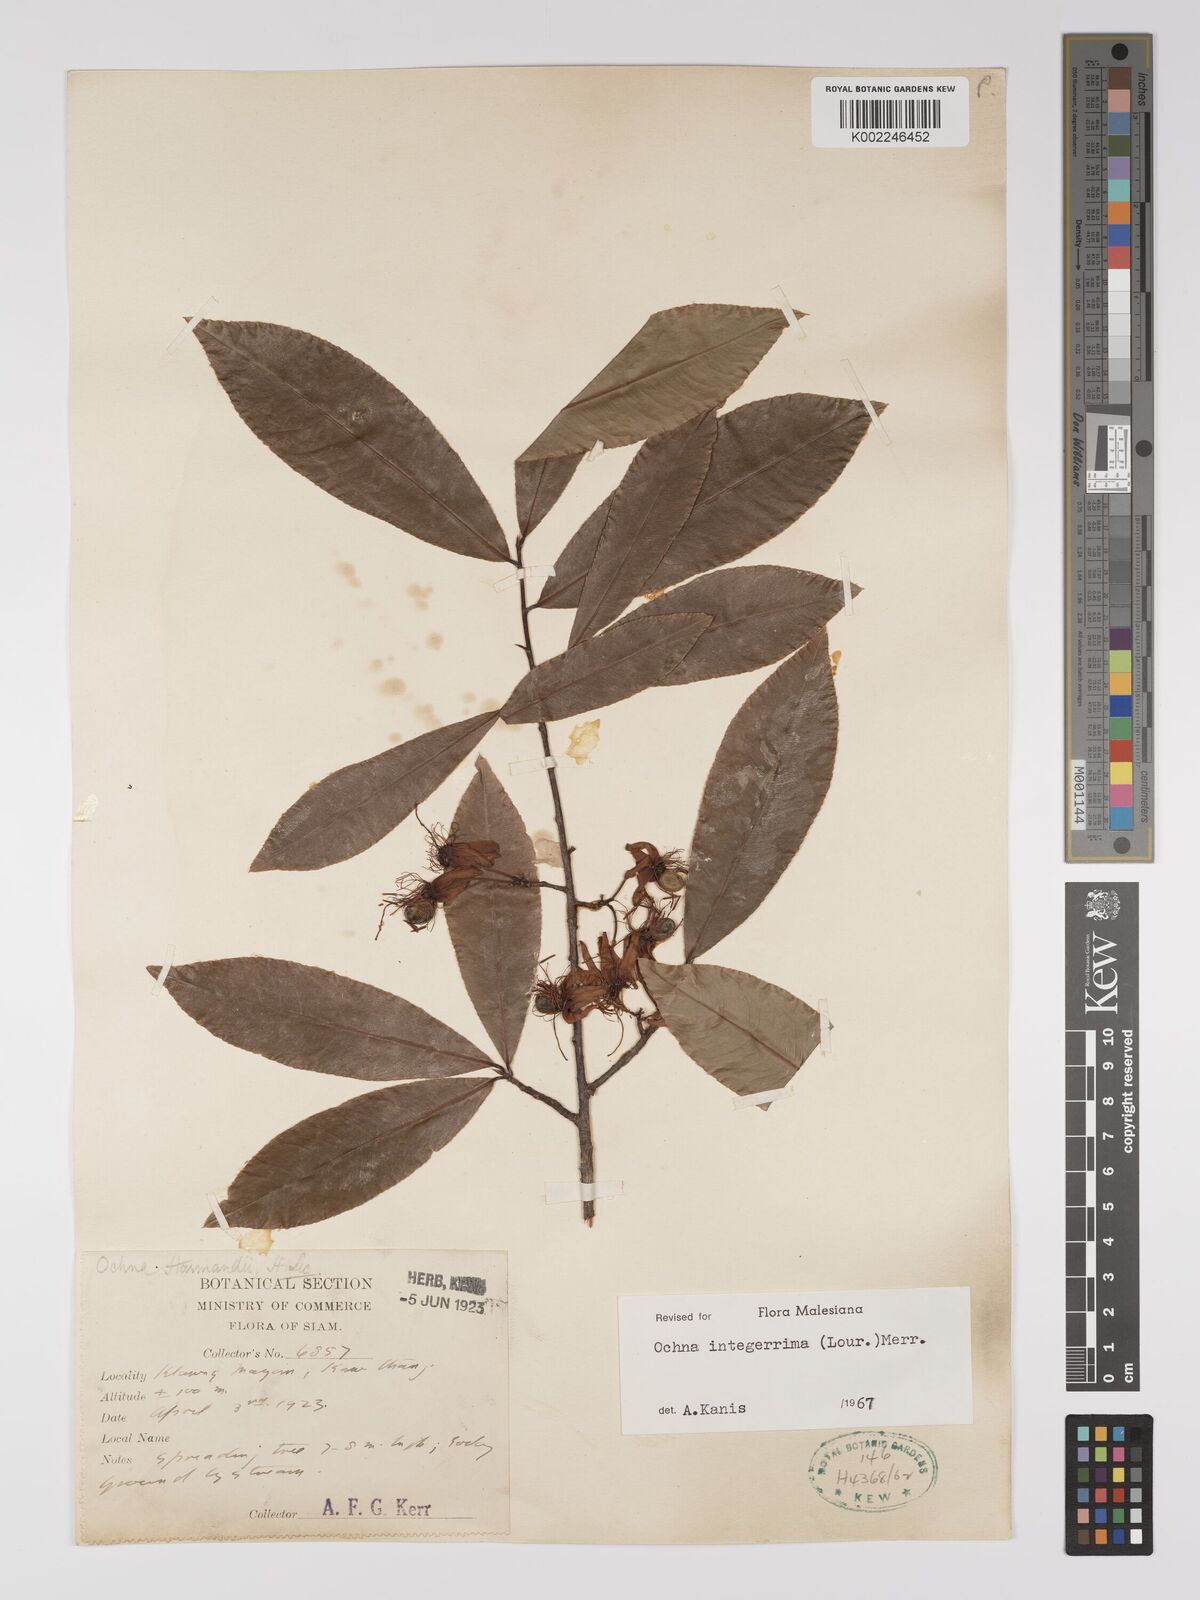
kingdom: Plantae
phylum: Tracheophyta
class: Magnoliopsida
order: Malpighiales
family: Ochnaceae
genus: Ochna
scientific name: Ochna integerrima
